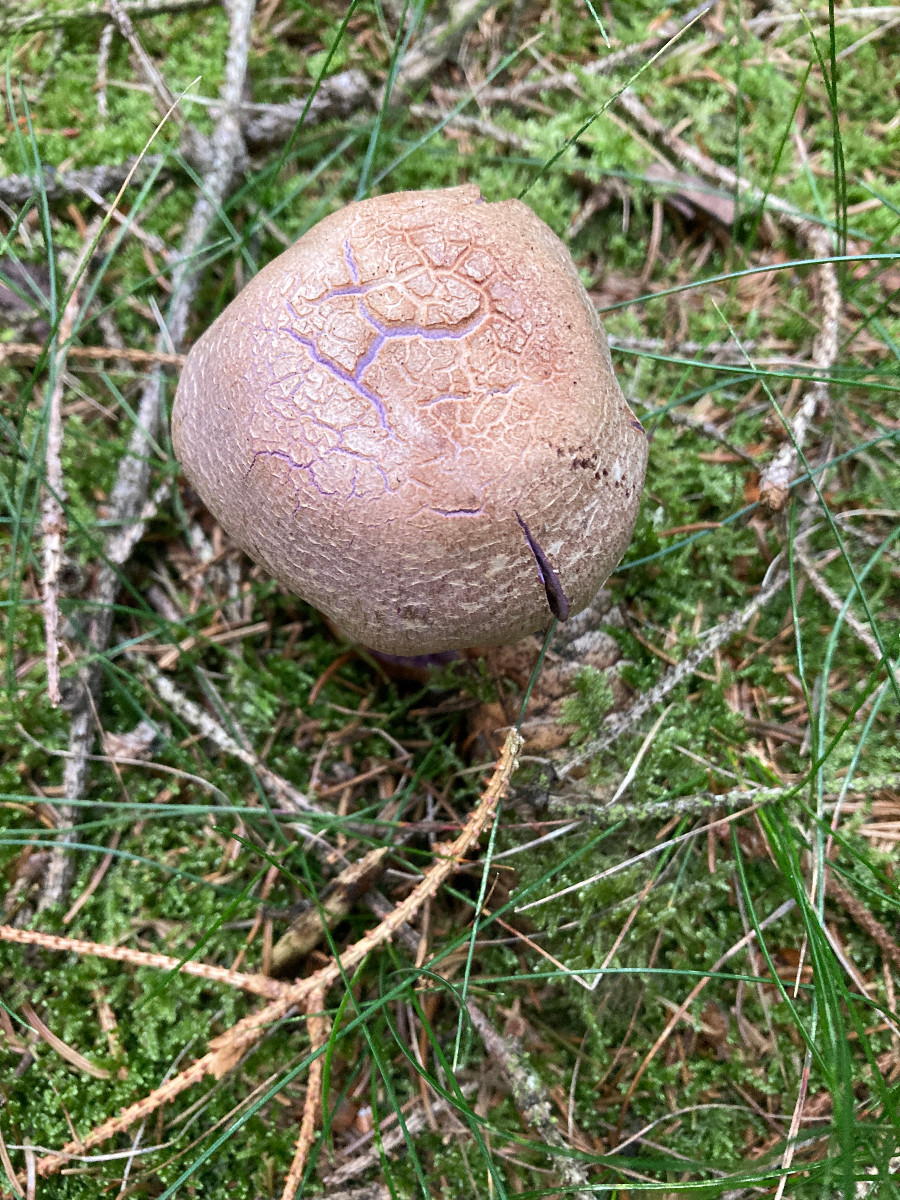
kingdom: Fungi
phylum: Basidiomycota
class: Agaricomycetes
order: Agaricales
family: Cortinariaceae
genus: Cortinarius
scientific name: Cortinarius camphoratus
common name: stinkende slørhat
